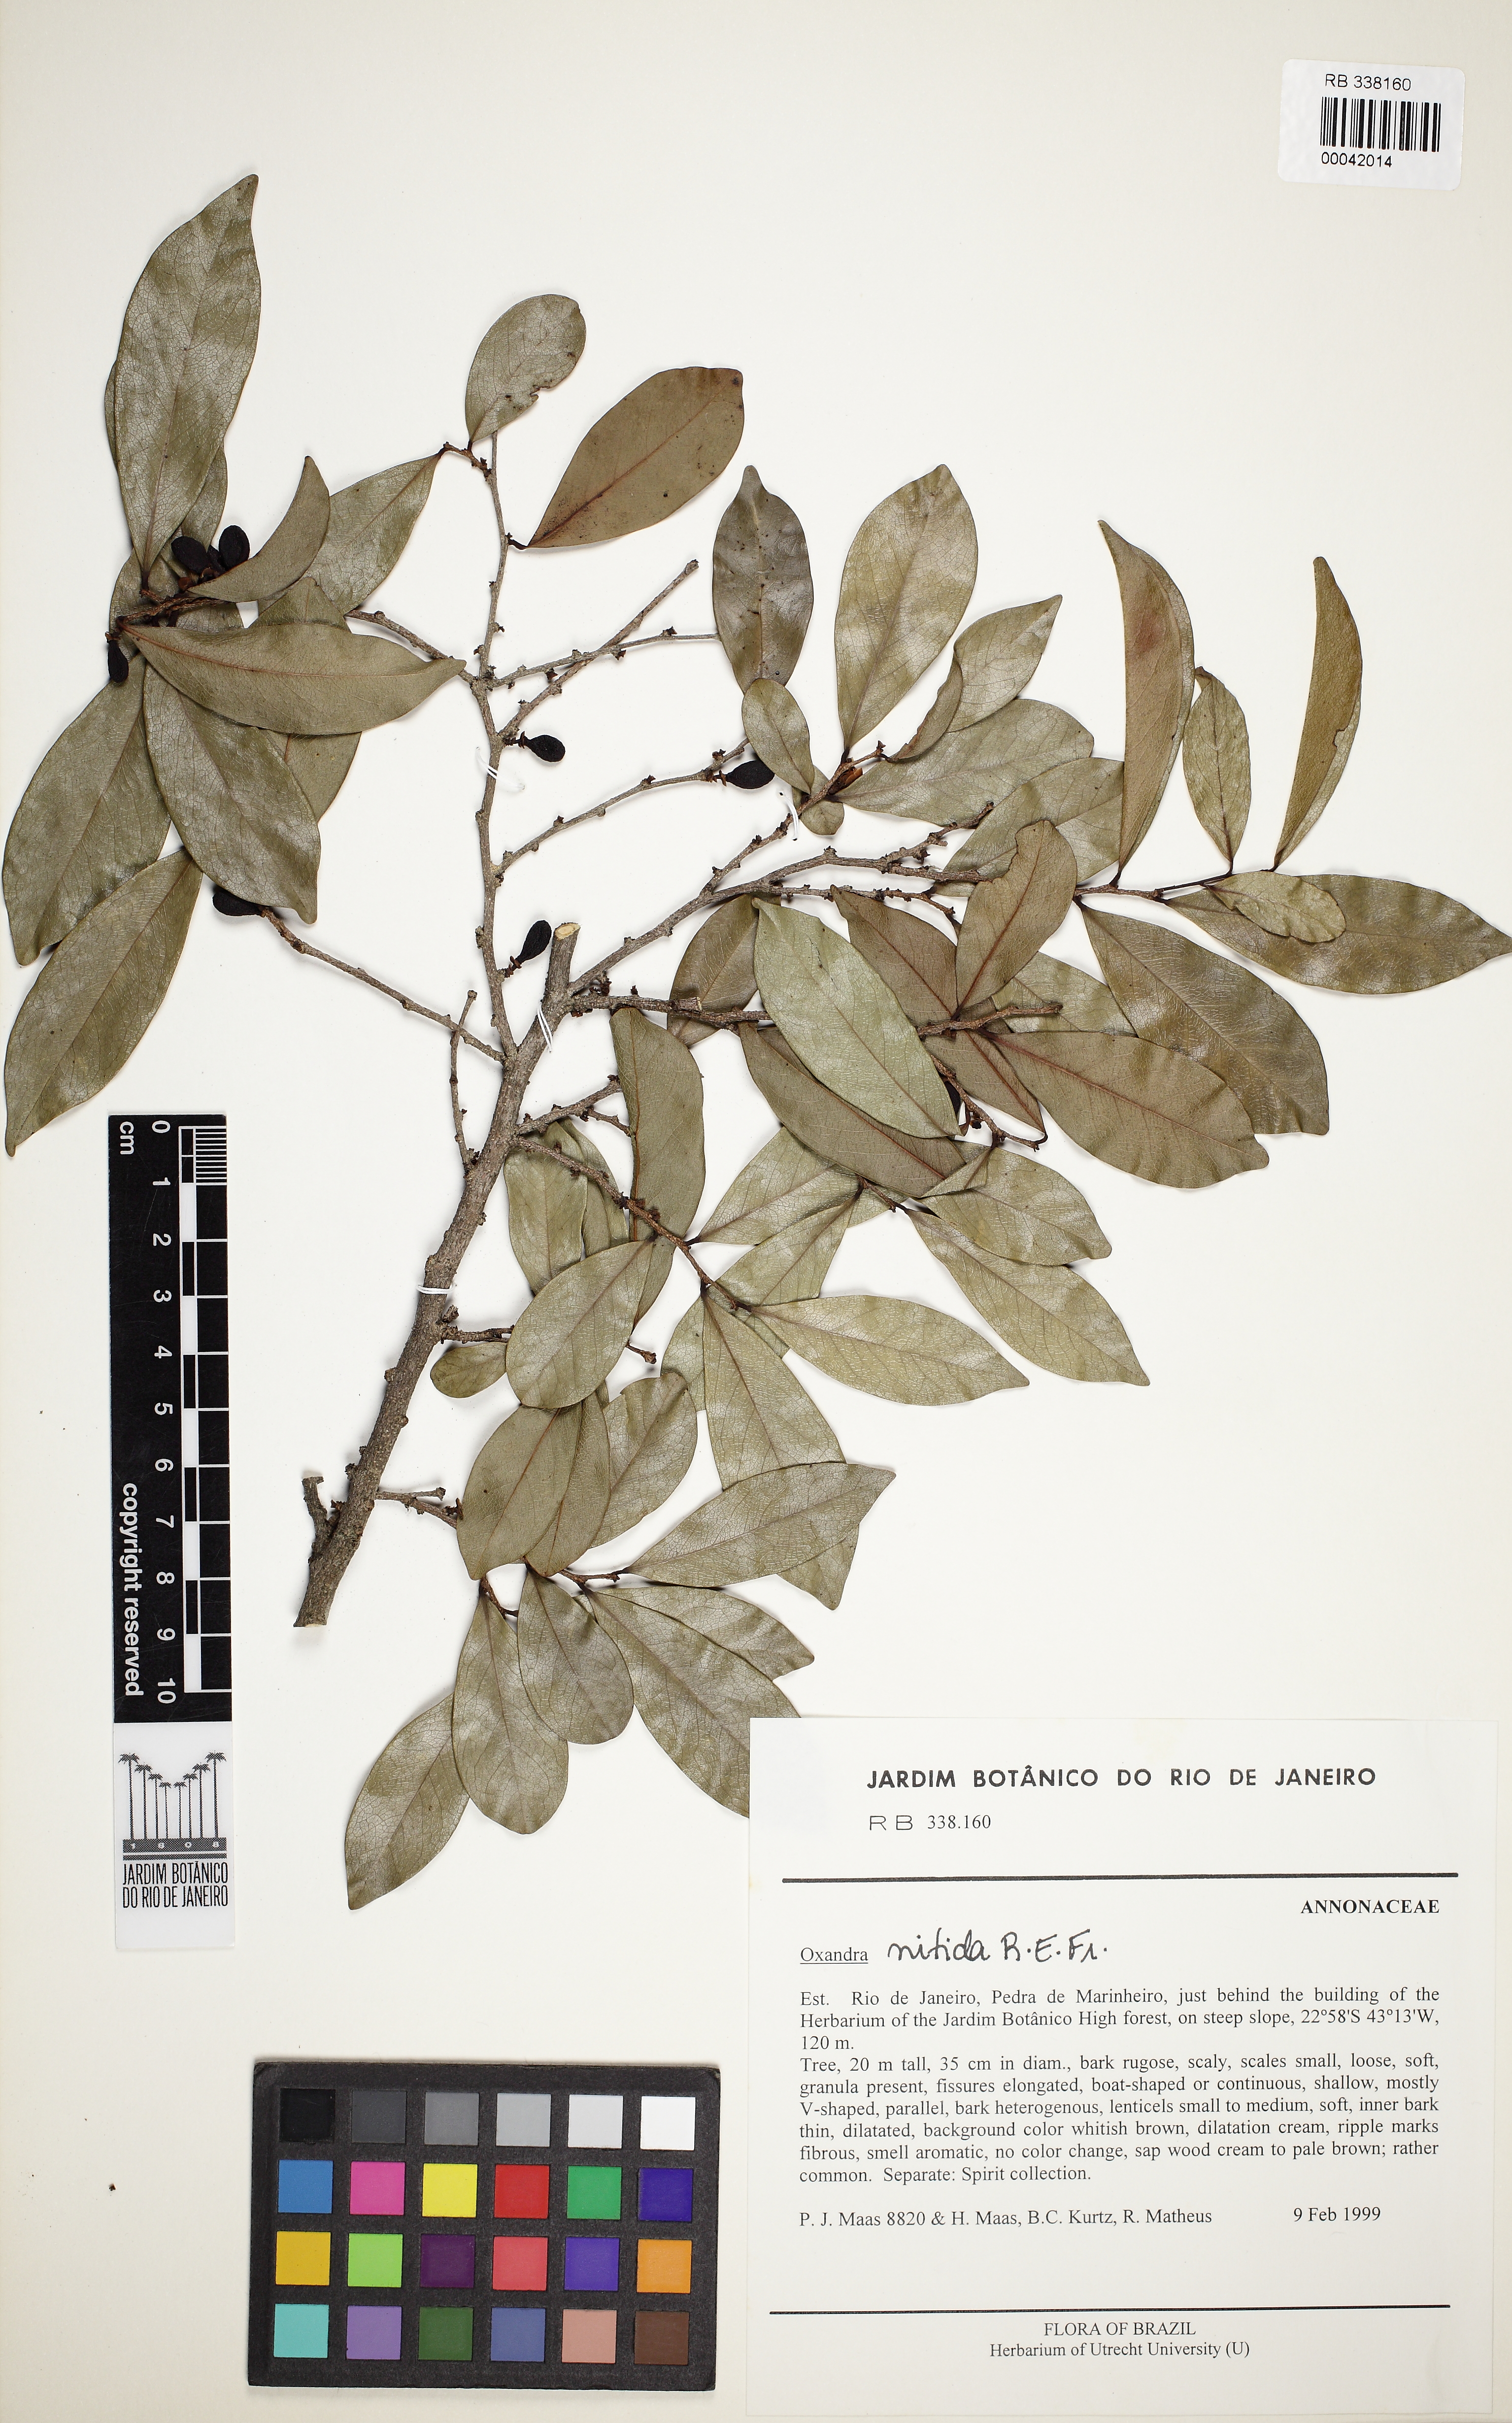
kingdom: Plantae
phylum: Tracheophyta
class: Magnoliopsida
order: Magnoliales
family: Annonaceae
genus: Oxandra
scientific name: Oxandra
